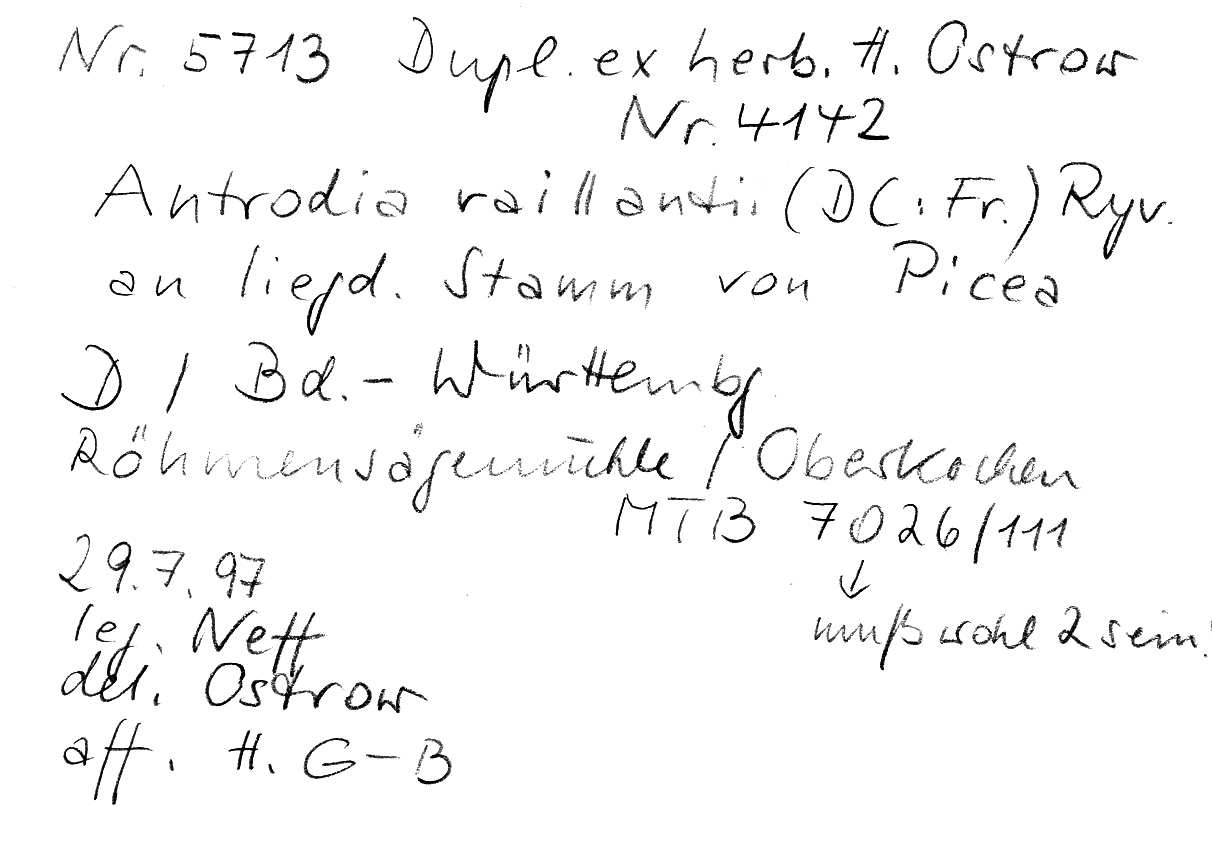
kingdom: Plantae
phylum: Tracheophyta
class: Pinopsida
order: Pinales
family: Pinaceae
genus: Picea
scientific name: Picea
